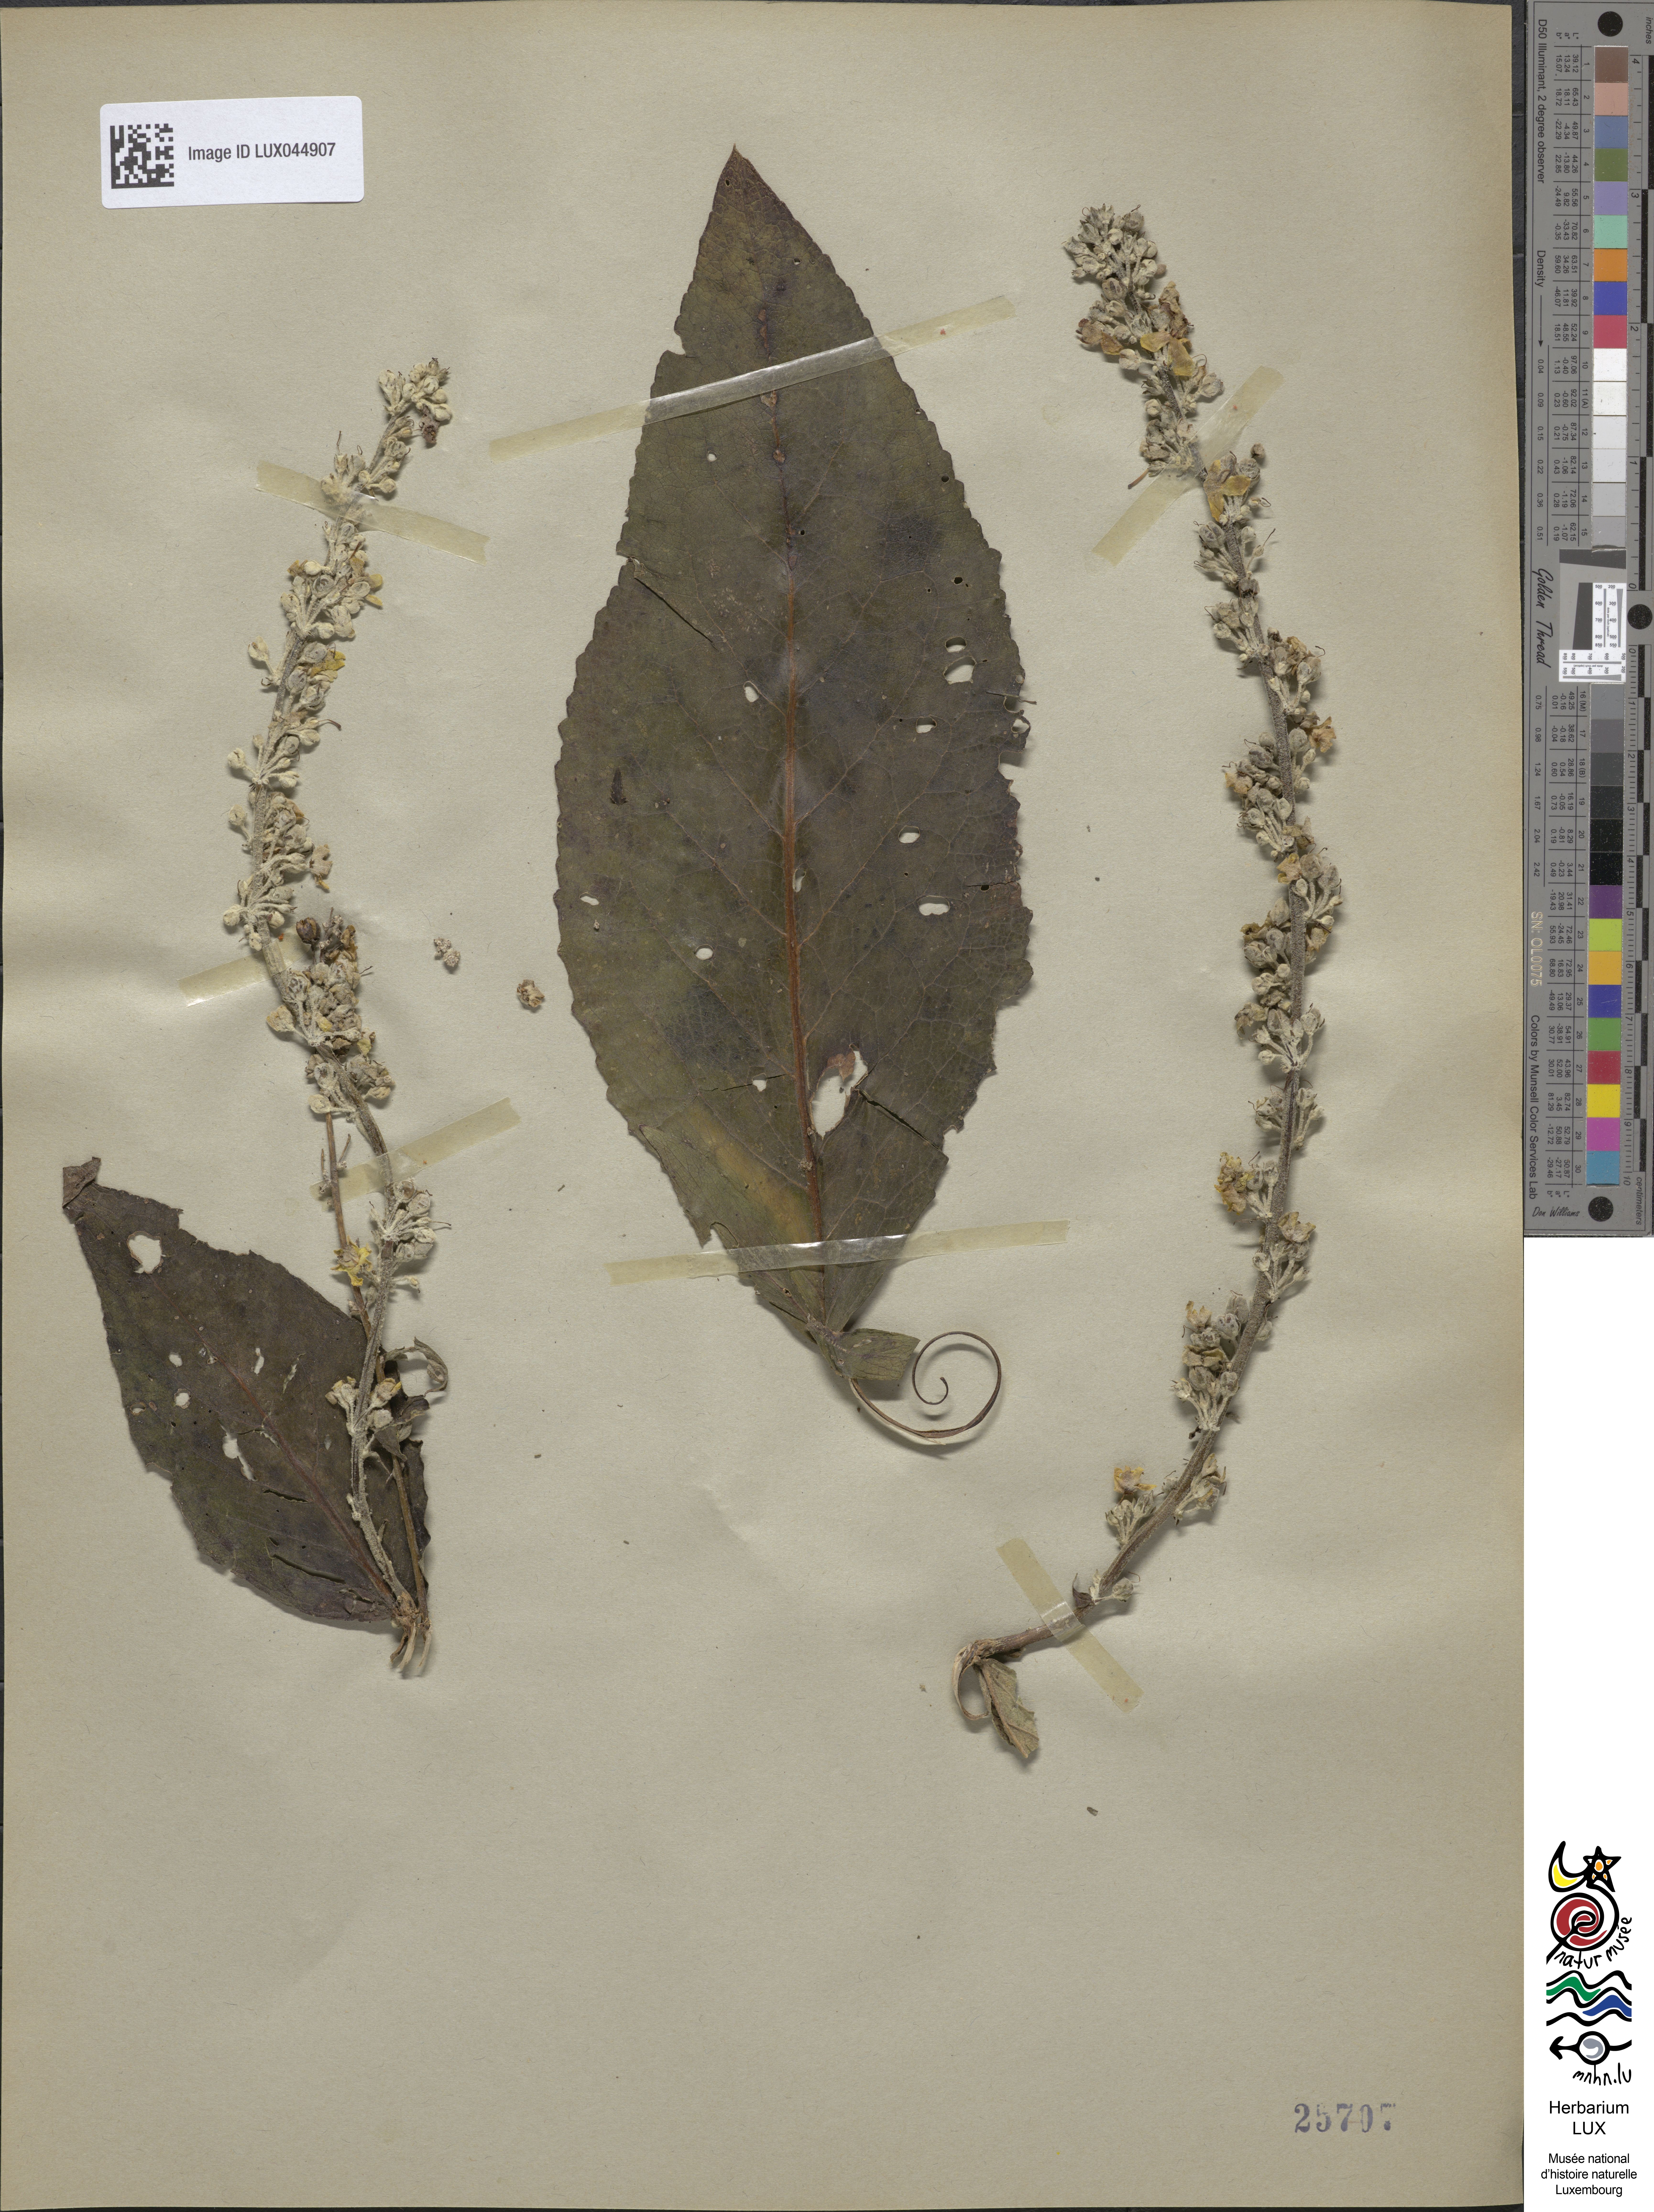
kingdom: Plantae
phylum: Tracheophyta
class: Magnoliopsida
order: Lamiales
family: Scrophulariaceae
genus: Verbascum
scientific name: Verbascum lychnitis
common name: White mullein
